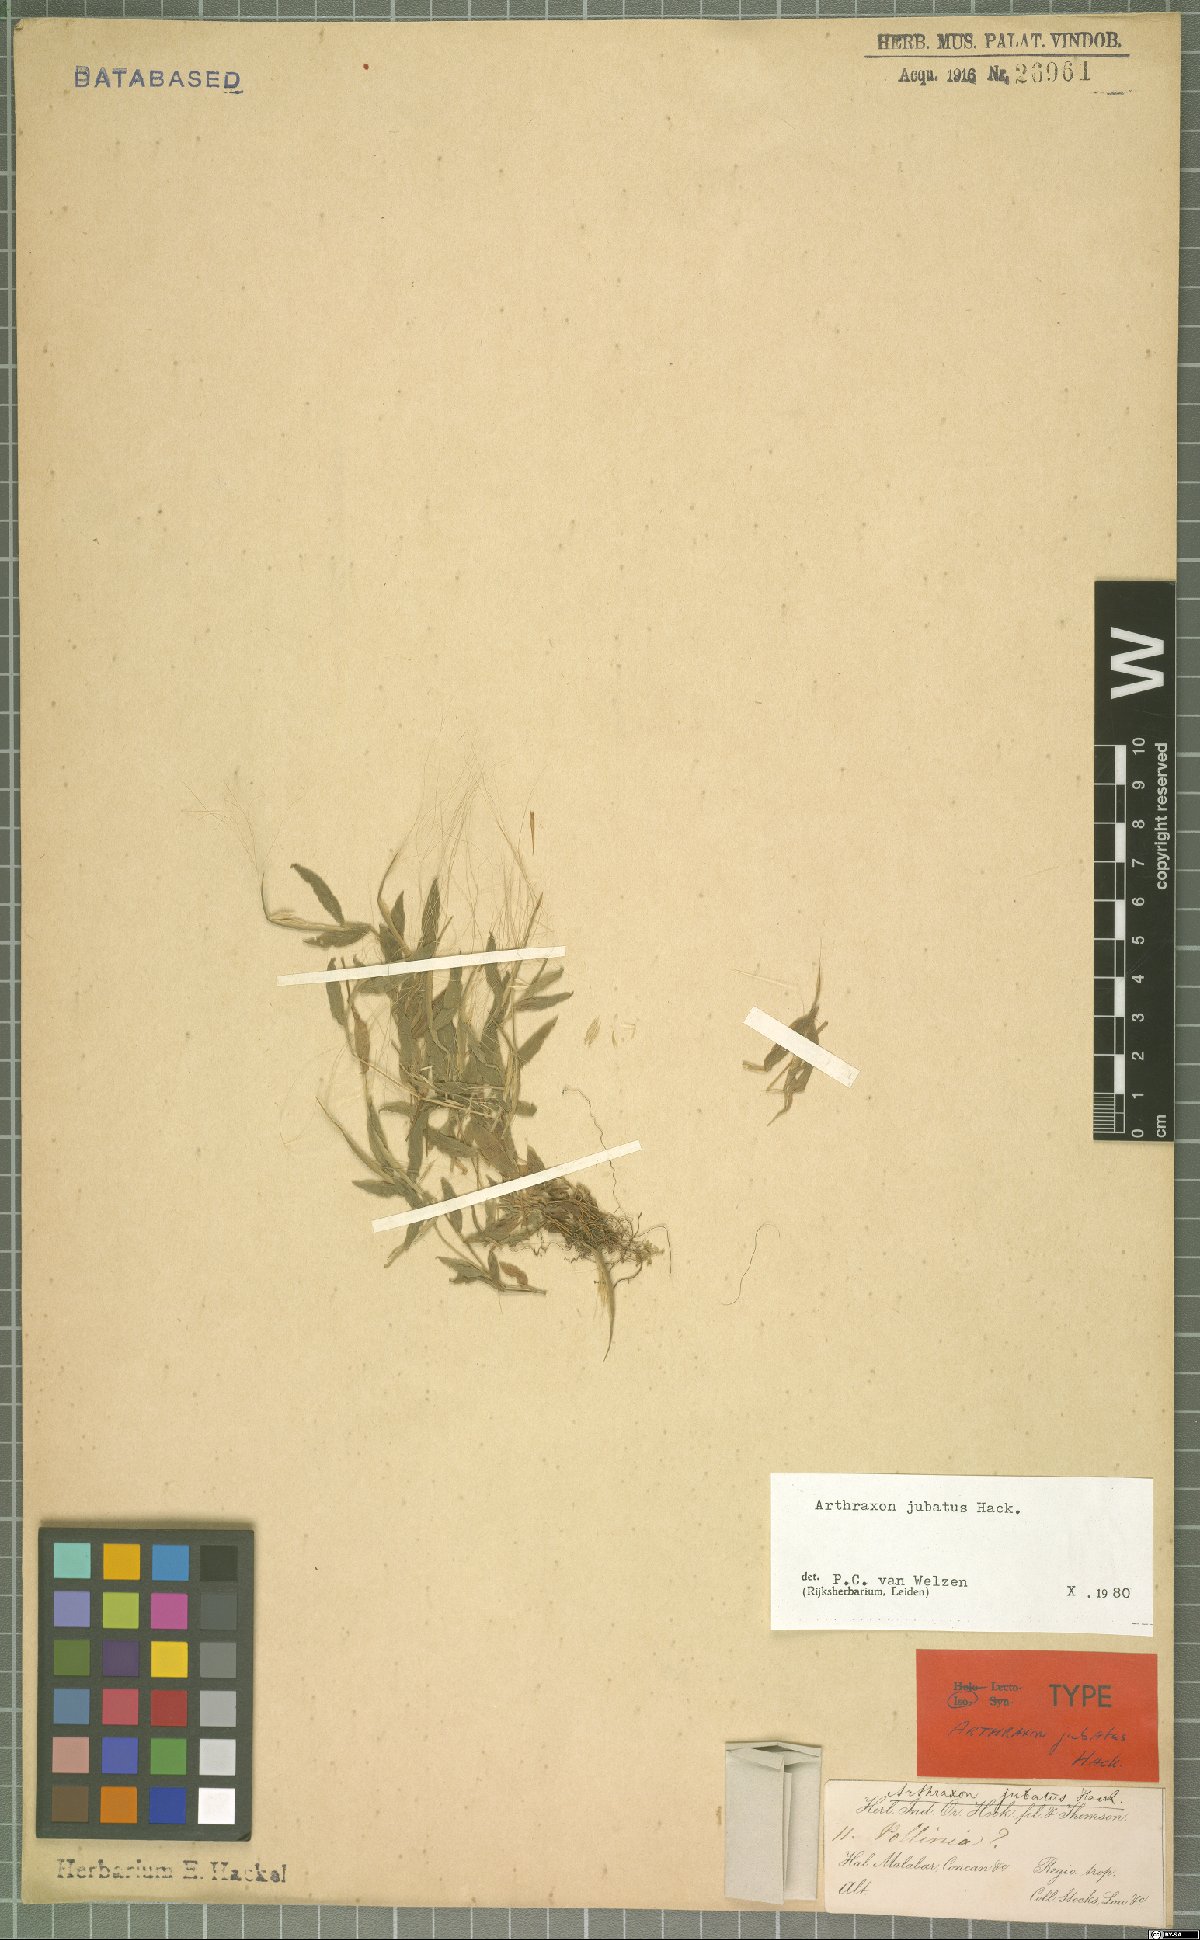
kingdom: Plantae
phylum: Tracheophyta
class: Liliopsida
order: Poales
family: Poaceae
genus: Arthraxon
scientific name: Arthraxon jubatus
